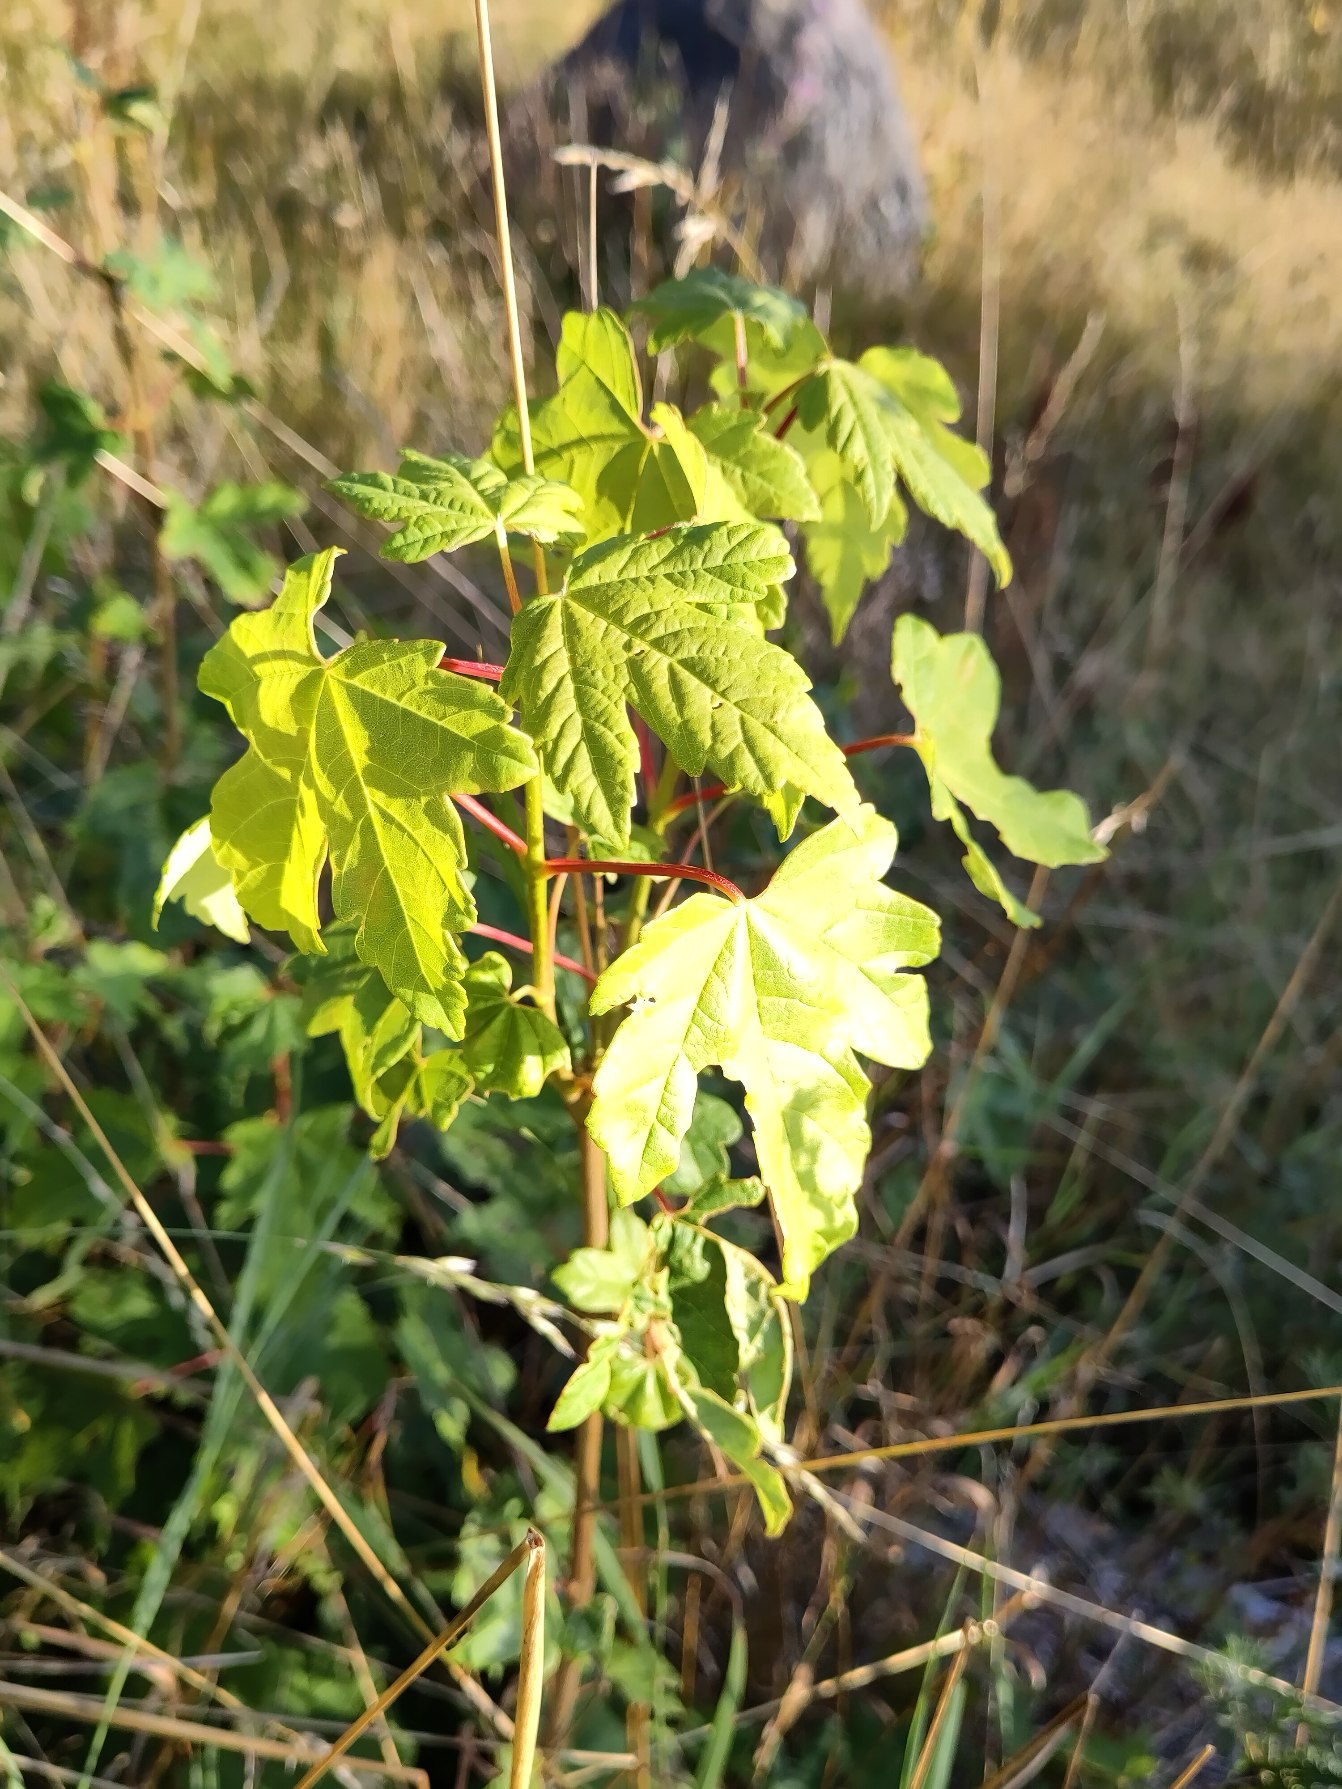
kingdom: Plantae
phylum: Tracheophyta
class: Magnoliopsida
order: Sapindales
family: Sapindaceae
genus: Acer
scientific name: Acer pseudoplatanus
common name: Ahorn
